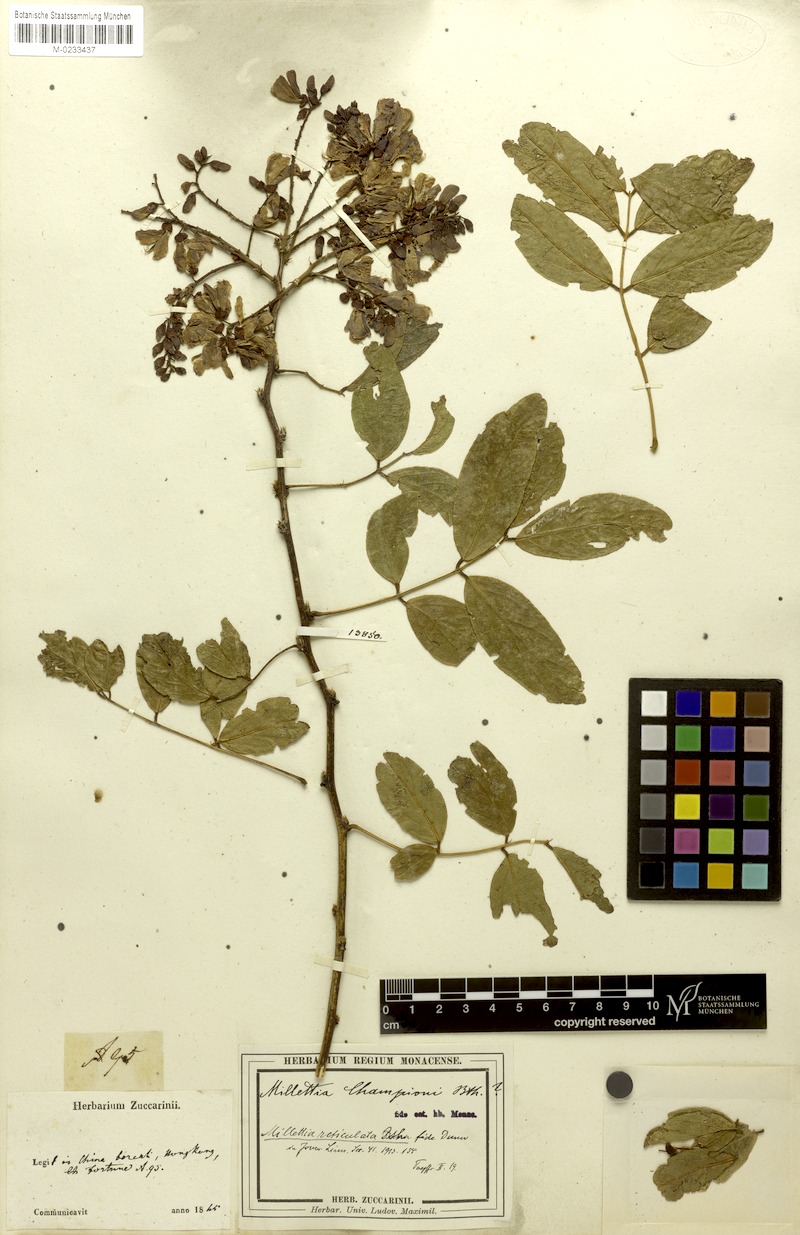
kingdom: Plantae
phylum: Tracheophyta
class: Magnoliopsida
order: Fabales
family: Fabaceae
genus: Wisteriopsis
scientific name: Wisteriopsis reticulata
